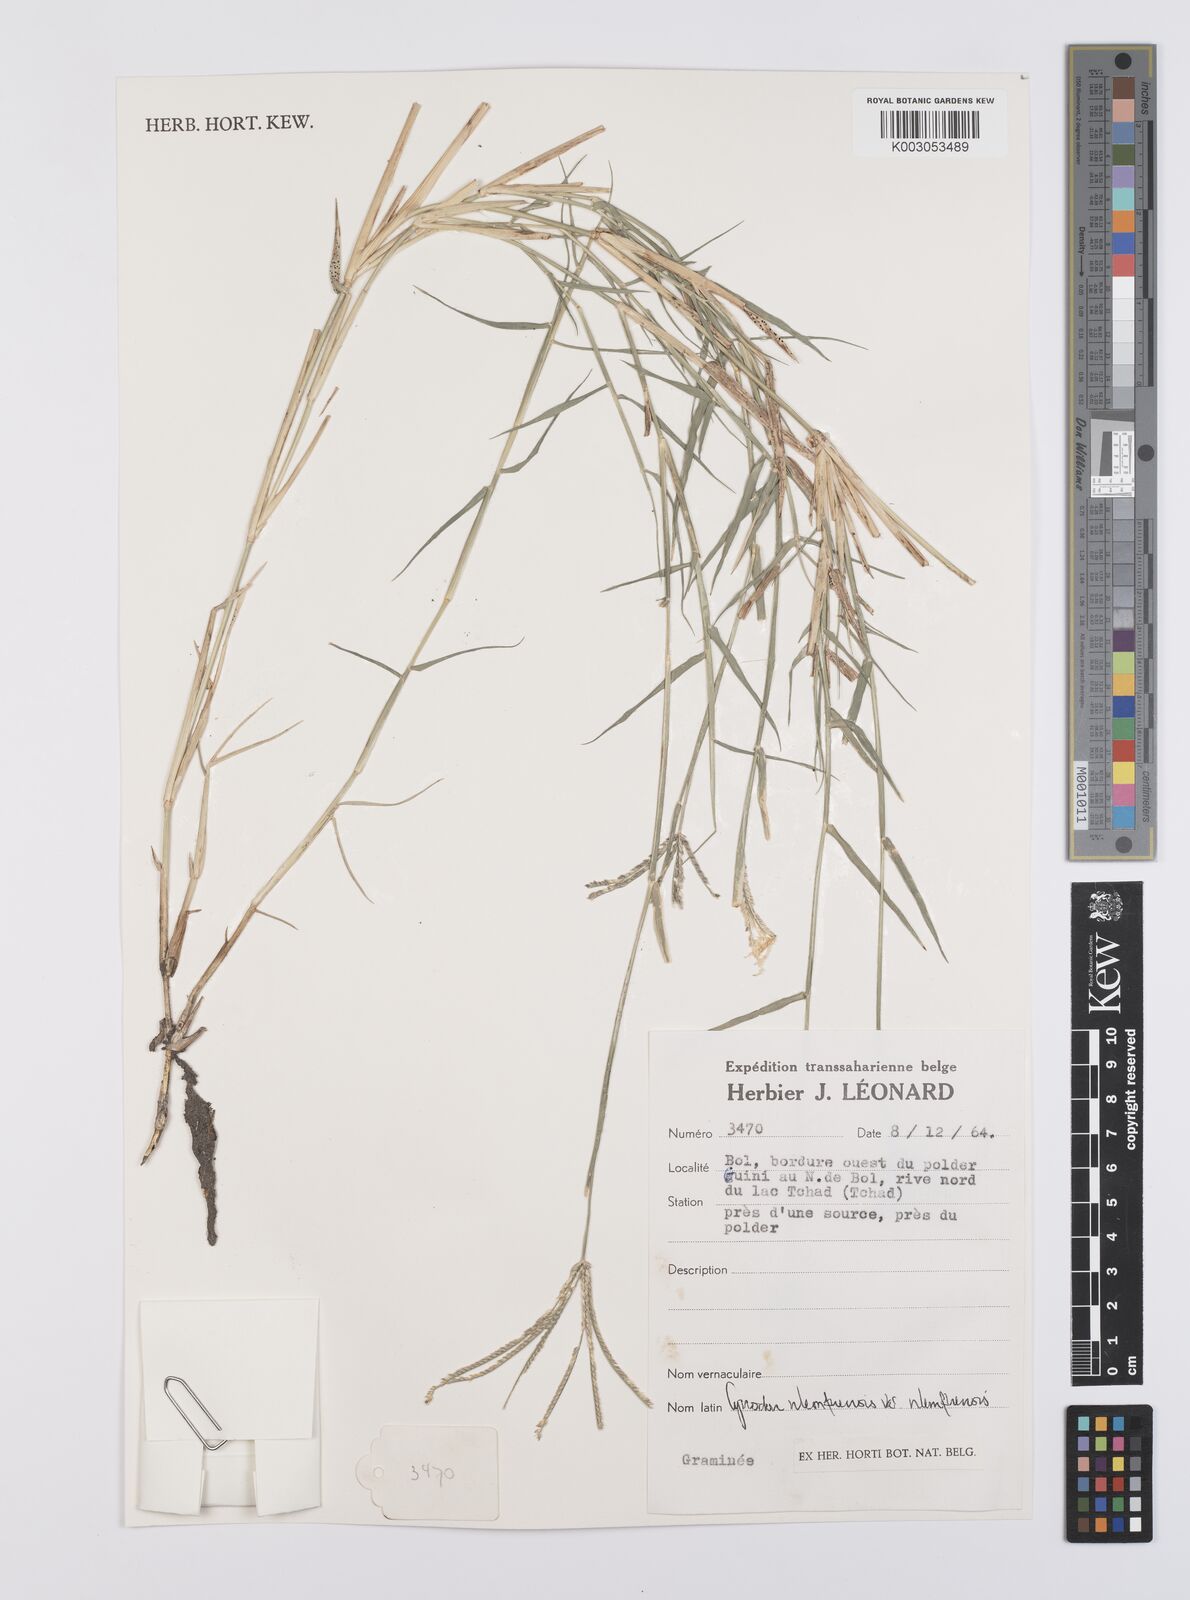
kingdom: Plantae
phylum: Tracheophyta
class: Liliopsida
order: Poales
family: Poaceae
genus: Cynodon
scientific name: Cynodon nlemfuensis
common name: African bermudagrass
